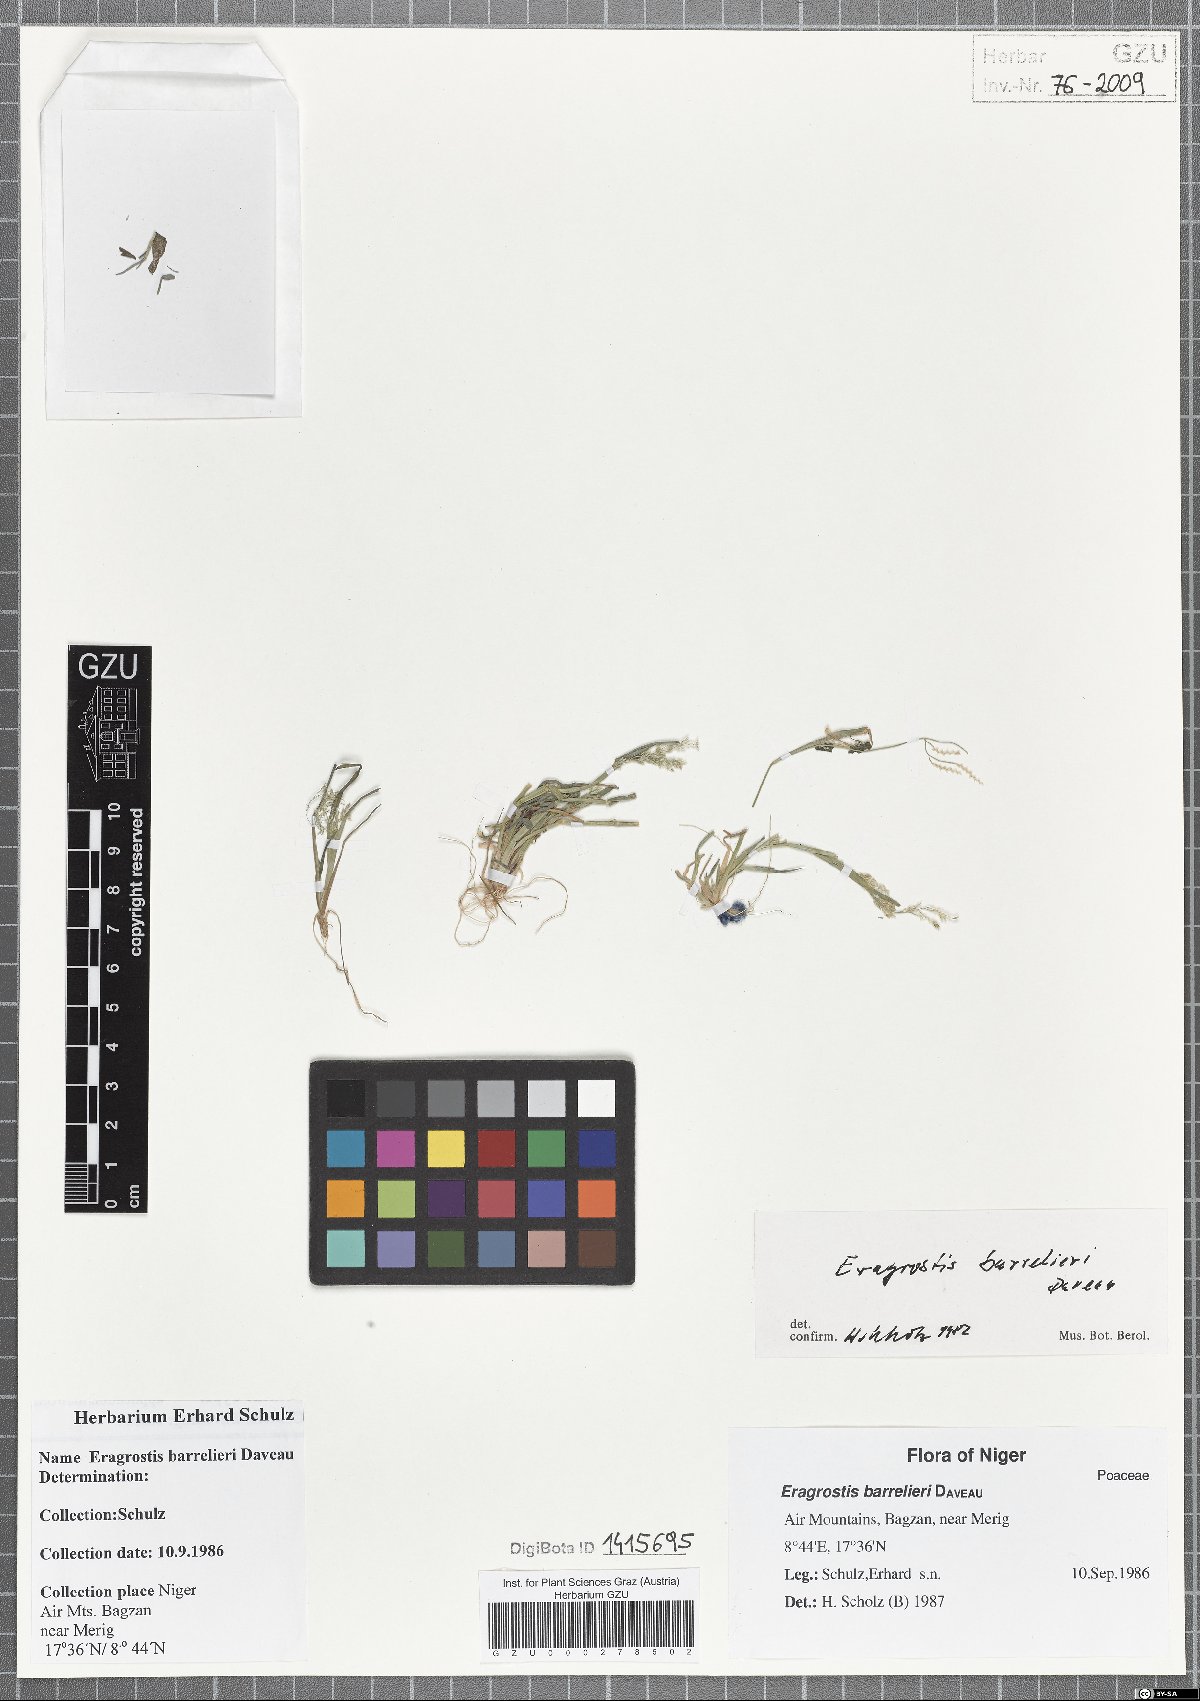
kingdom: Plantae
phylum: Tracheophyta
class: Liliopsida
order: Poales
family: Poaceae
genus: Eragrostis
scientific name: Eragrostis barrelieri
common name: Mediterranean lovegrass
